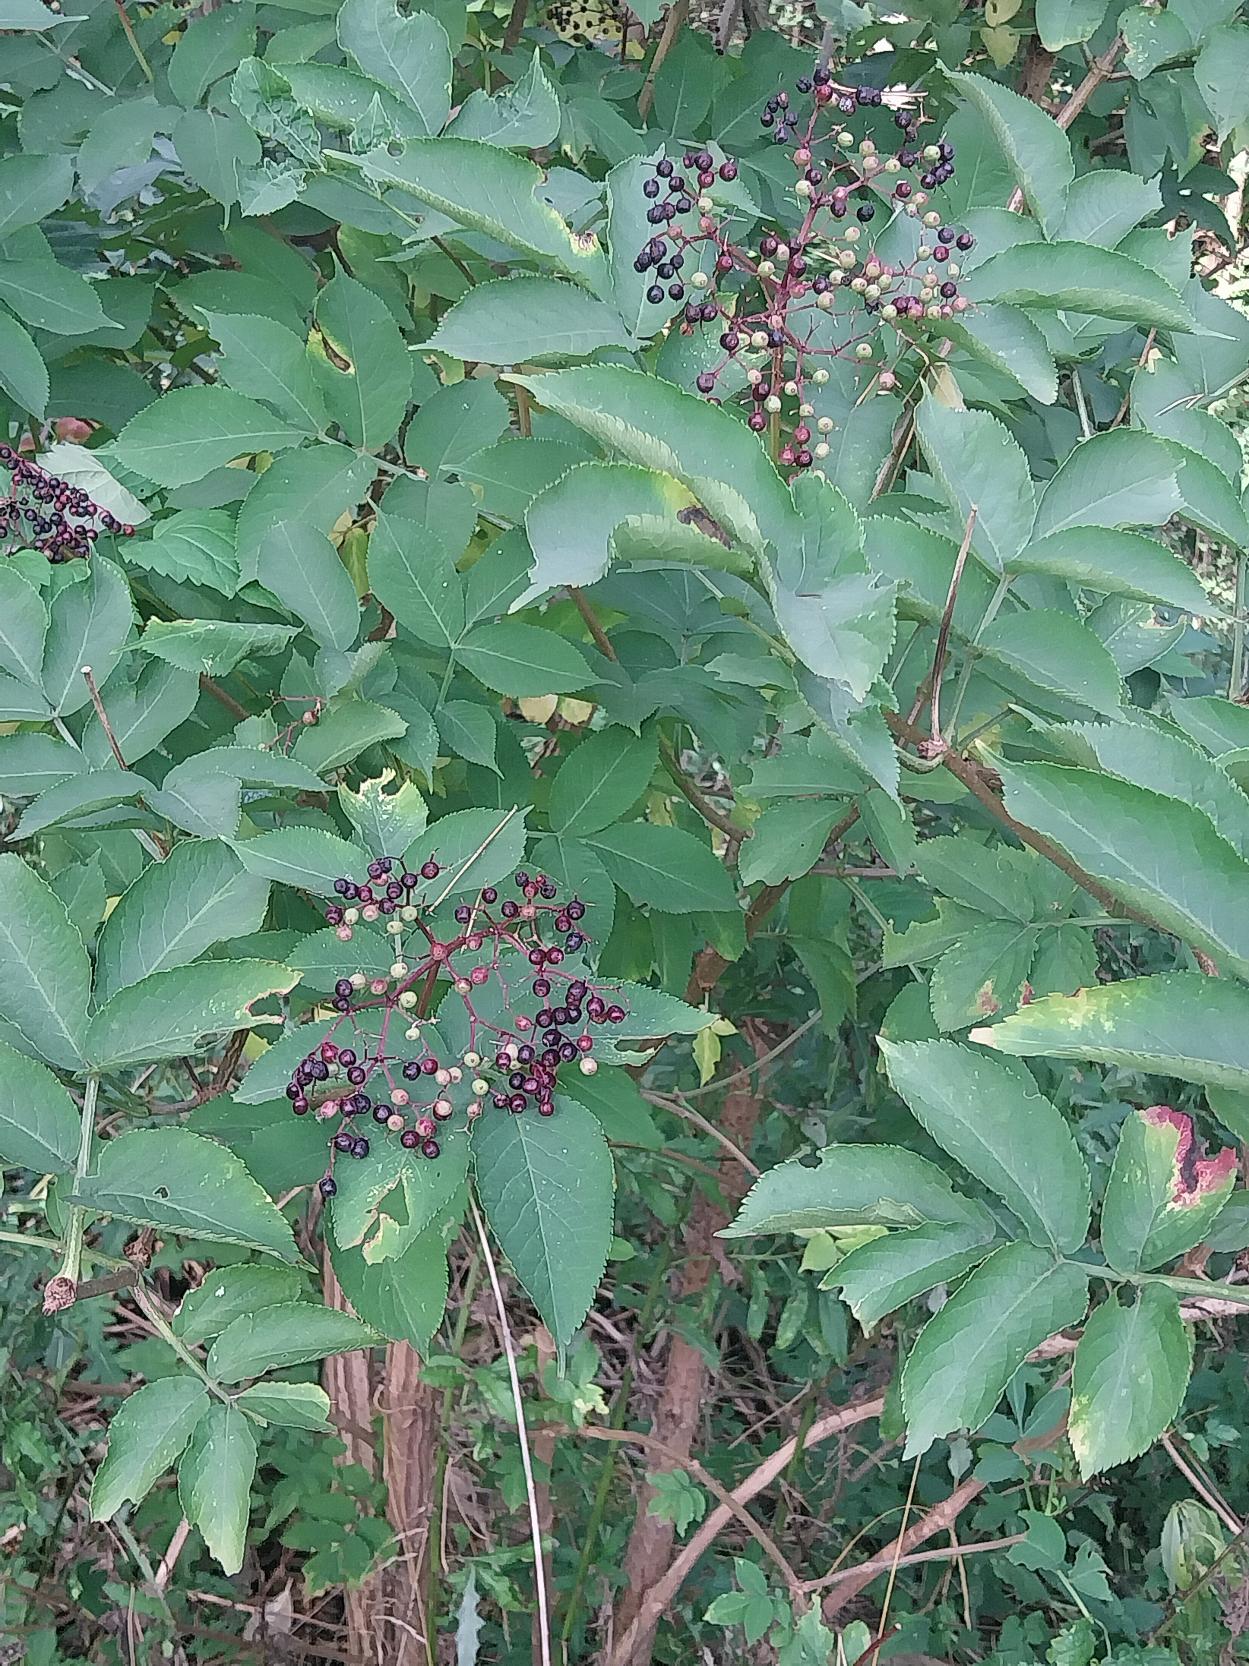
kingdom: Plantae
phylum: Tracheophyta
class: Magnoliopsida
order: Dipsacales
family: Viburnaceae
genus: Sambucus
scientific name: Sambucus nigra
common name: Almindelig hyld
